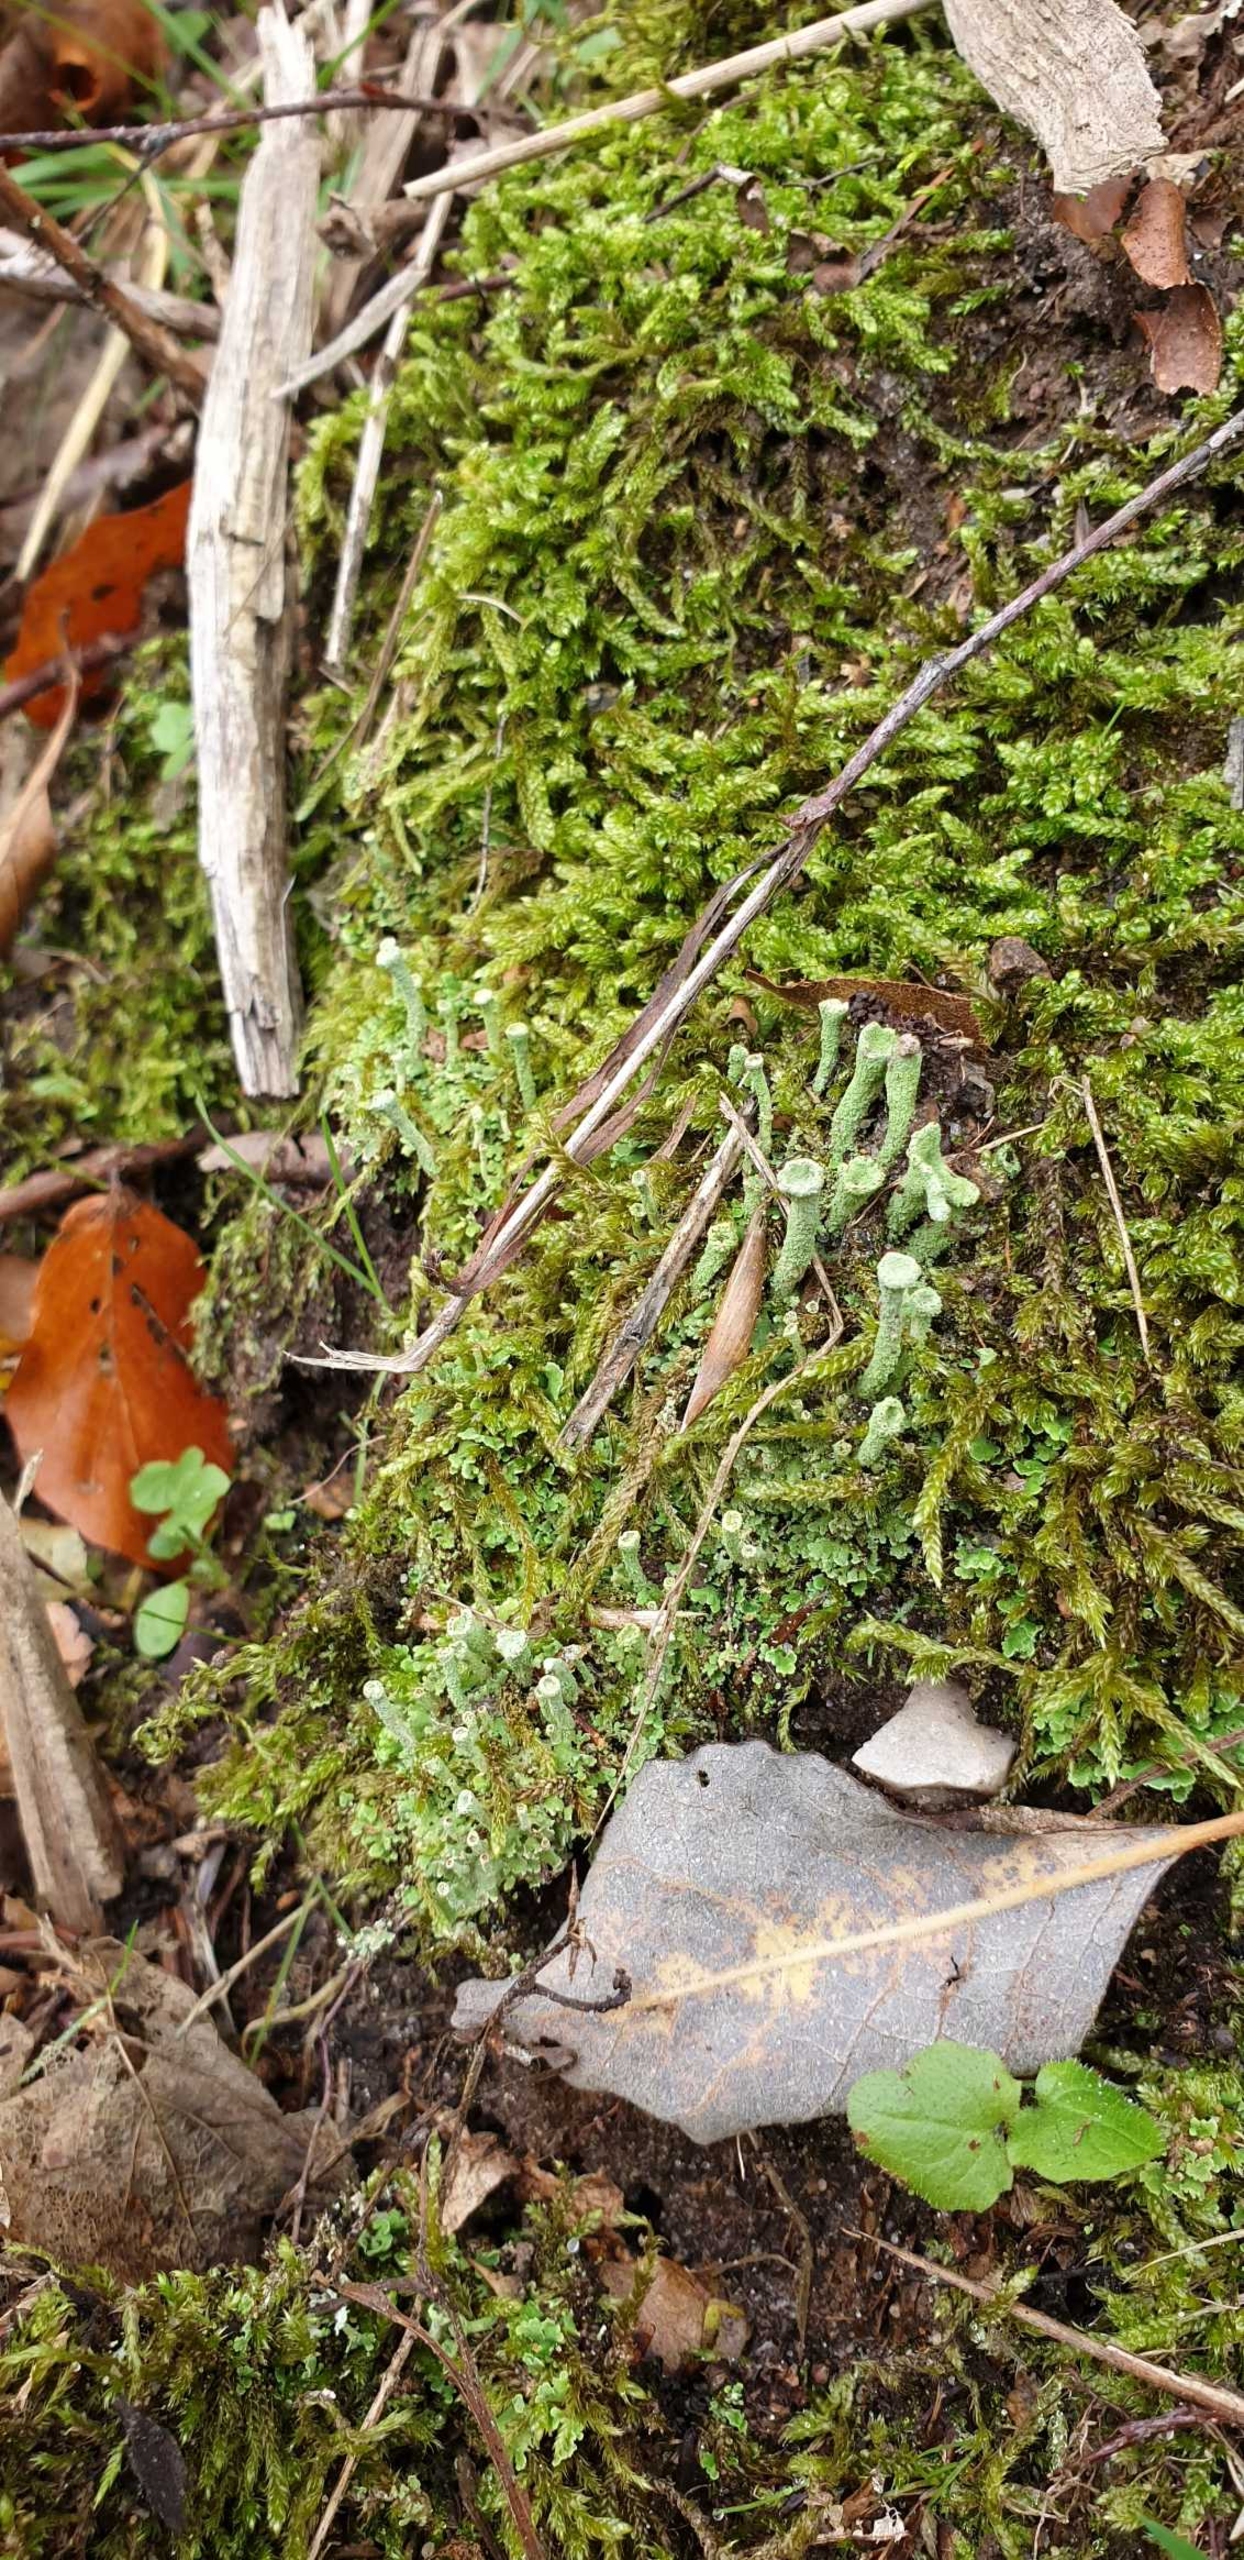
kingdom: Fungi
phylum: Ascomycota
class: Lecanoromycetes
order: Lecanorales
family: Cladoniaceae
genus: Cladonia
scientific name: Cladonia
